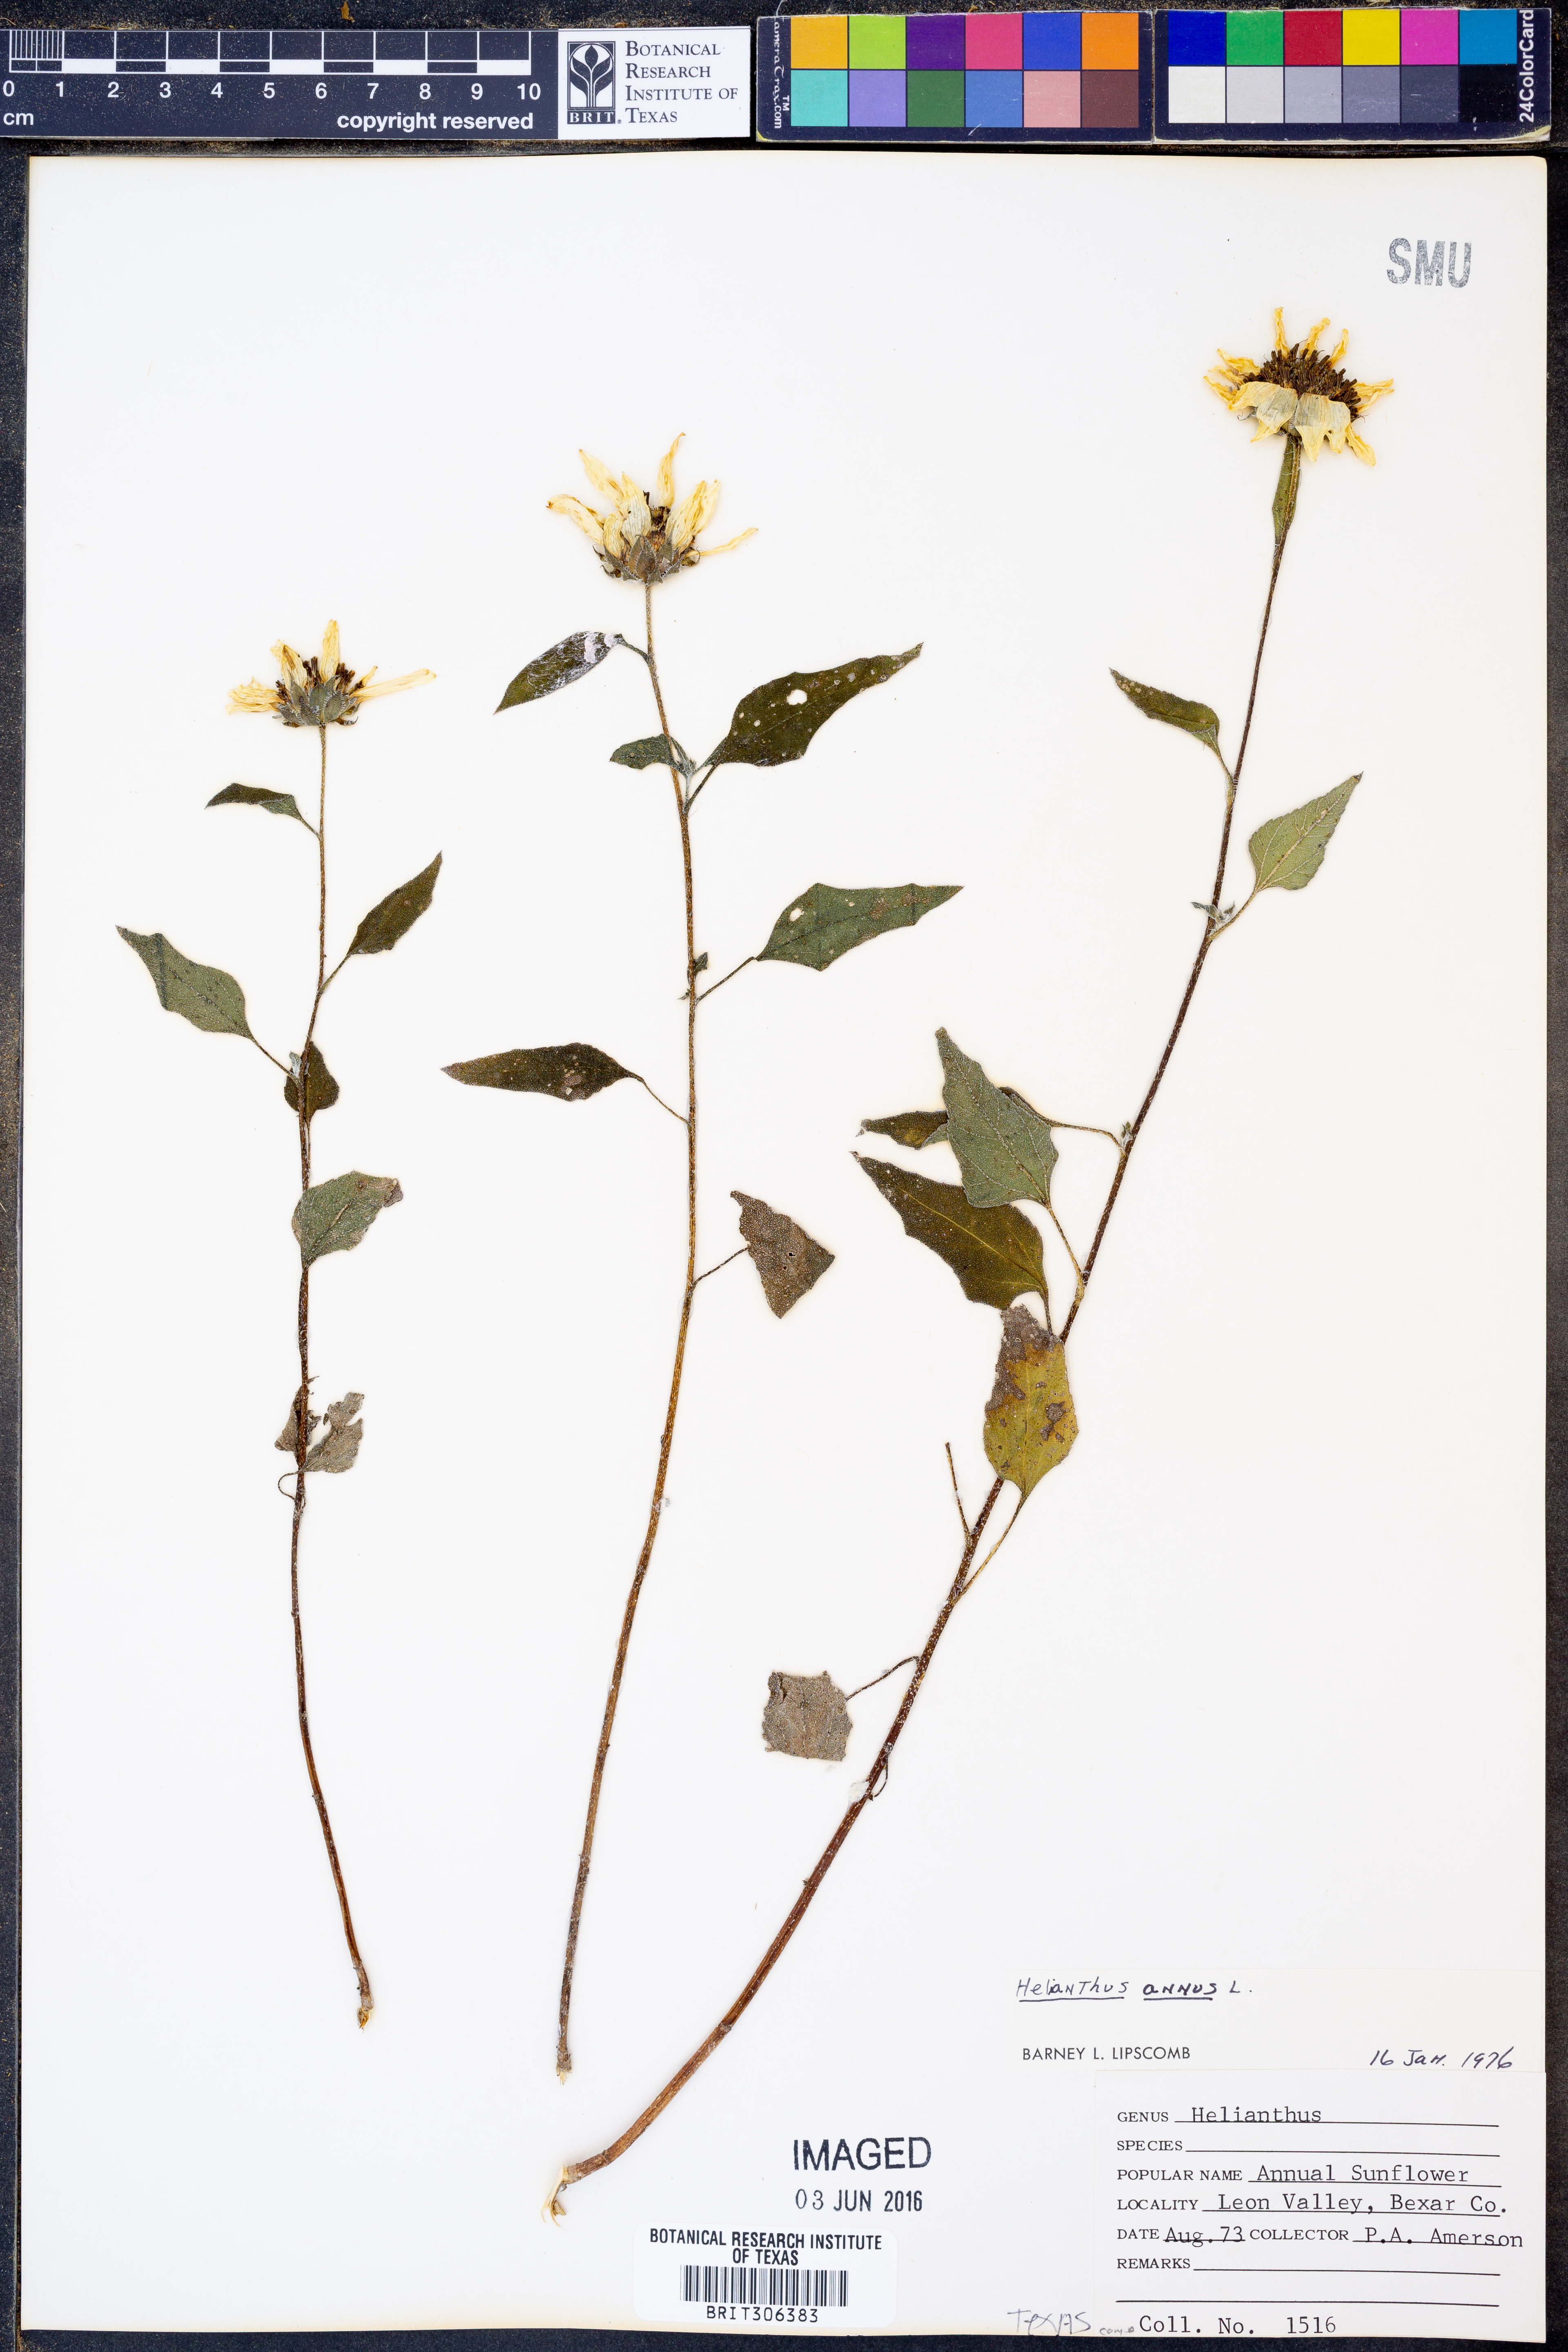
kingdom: Plantae
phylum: Tracheophyta
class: Magnoliopsida
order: Asterales
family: Asteraceae
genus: Helianthus
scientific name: Helianthus annuus
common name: Sunflower
